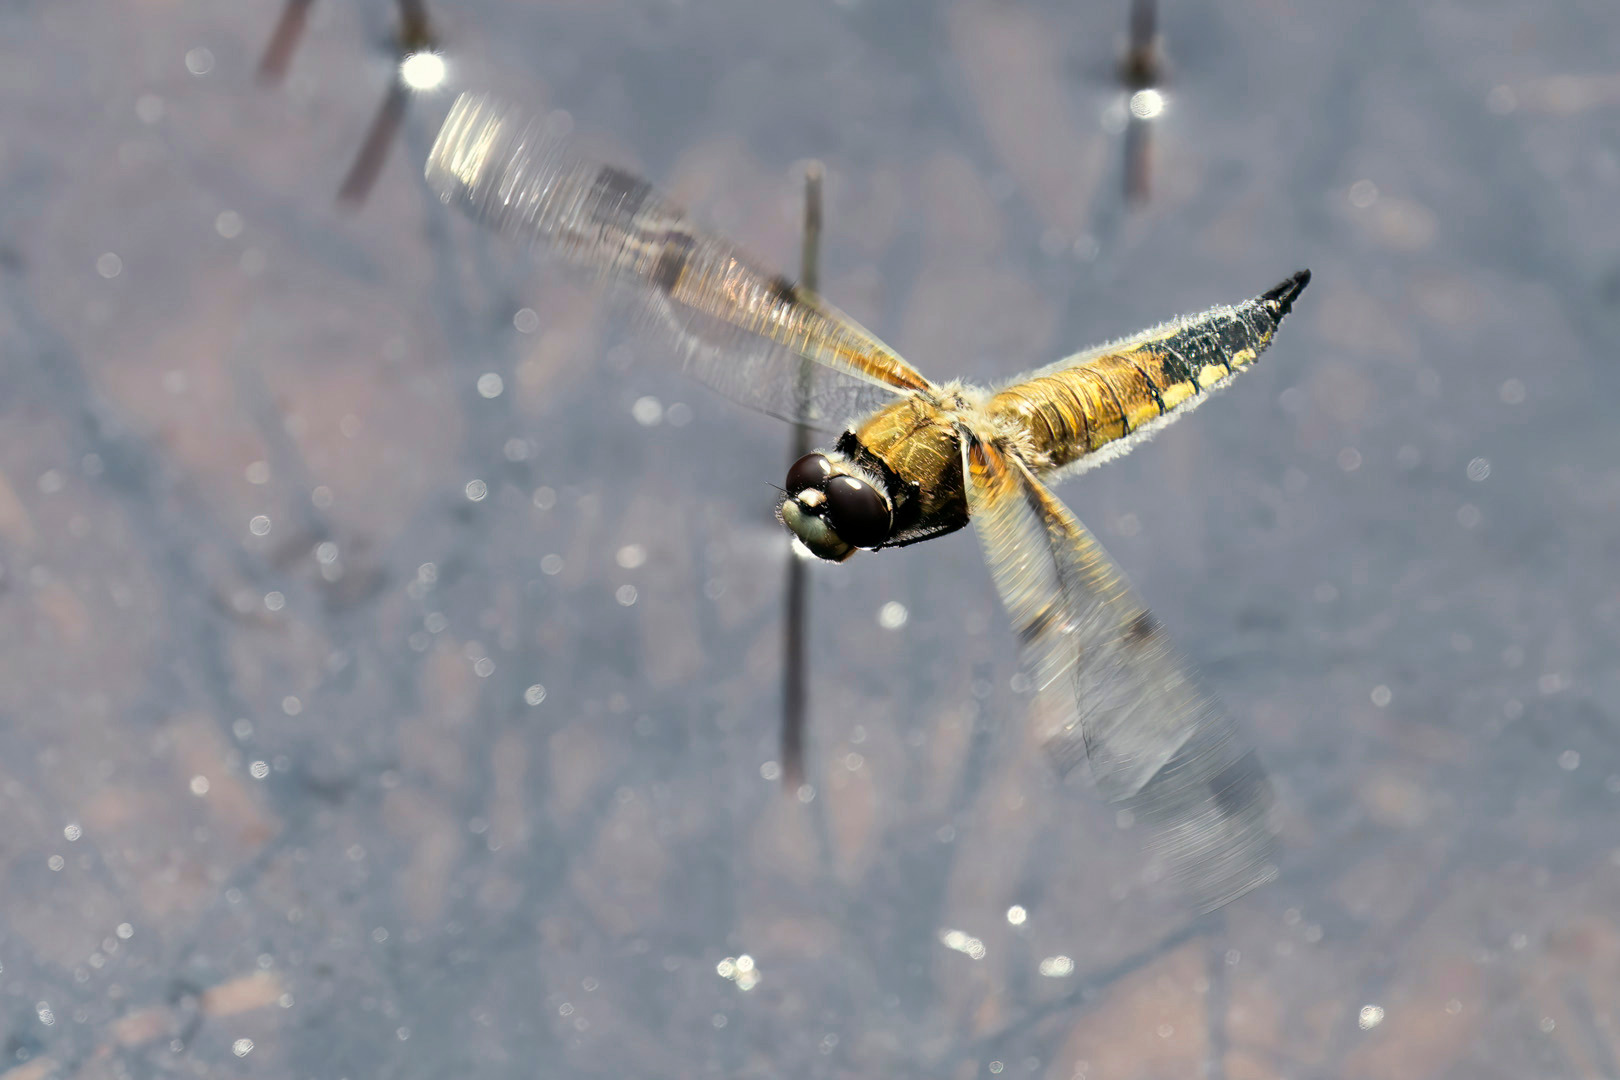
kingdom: Animalia
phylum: Arthropoda
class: Insecta
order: Odonata
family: Libellulidae
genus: Libellula
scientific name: Libellula quadrimaculata
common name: Fireplettet libel
